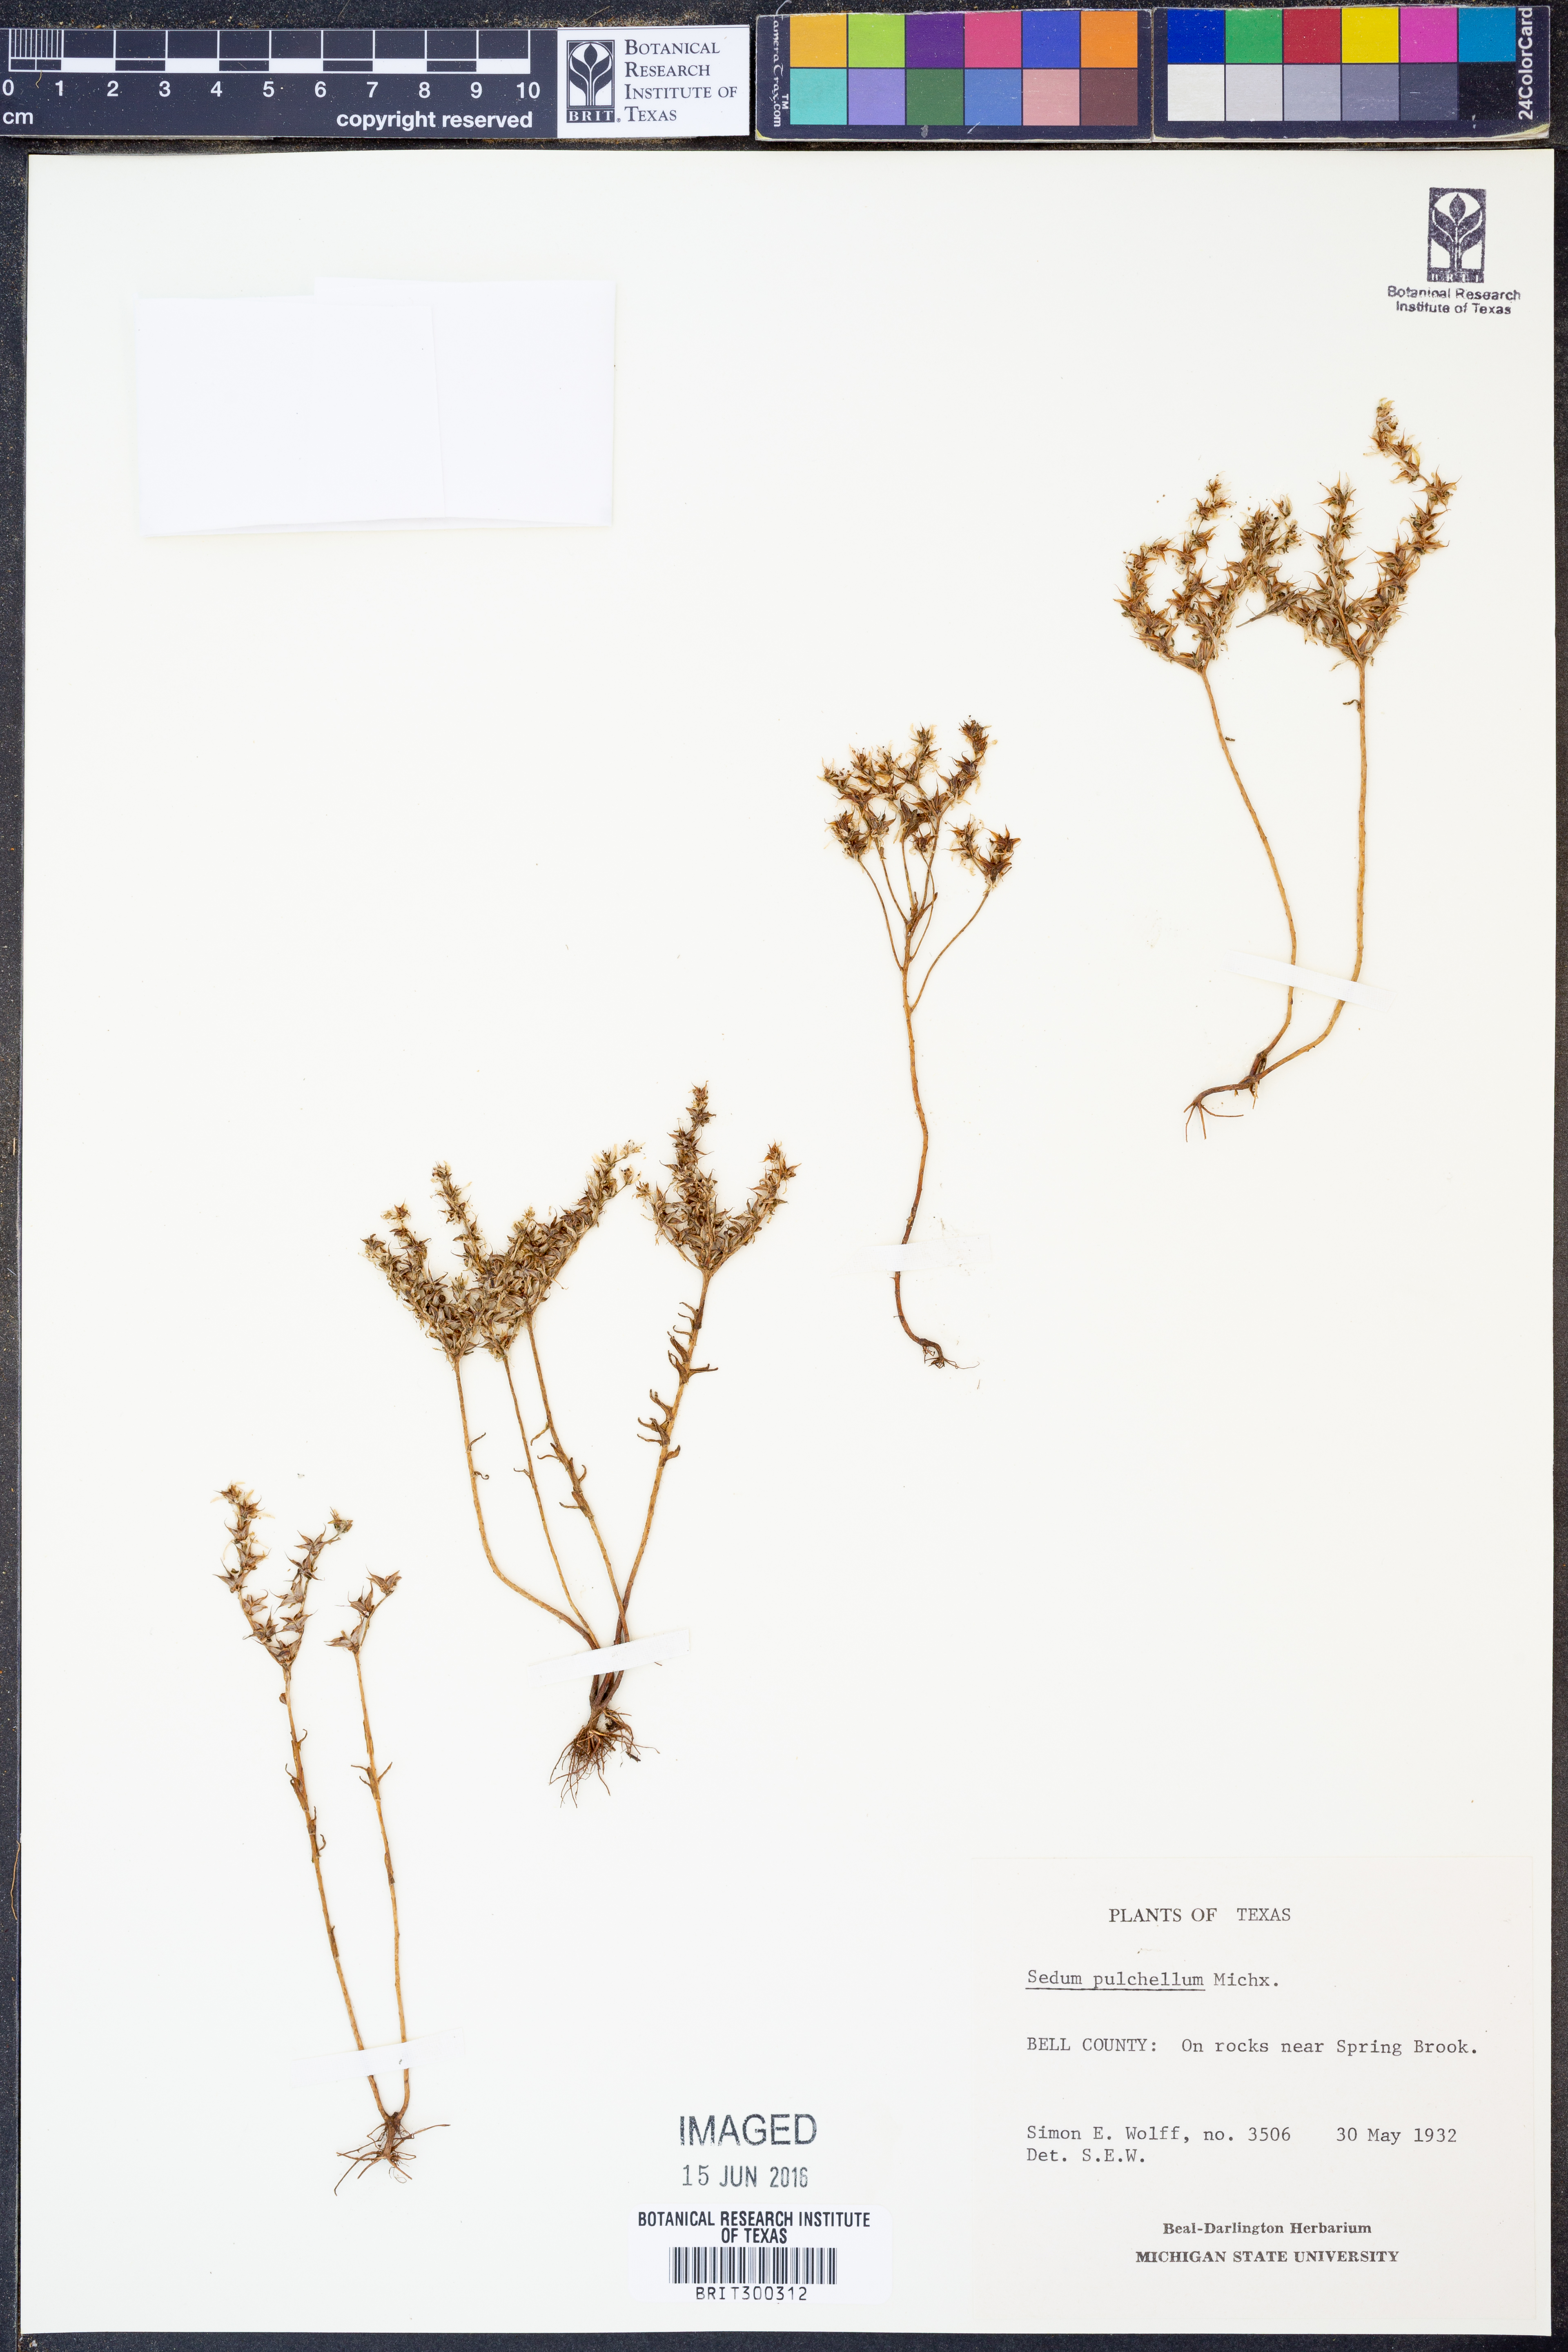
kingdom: Plantae
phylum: Tracheophyta
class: Magnoliopsida
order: Saxifragales
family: Crassulaceae
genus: Sedum
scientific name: Sedum pulchellum
